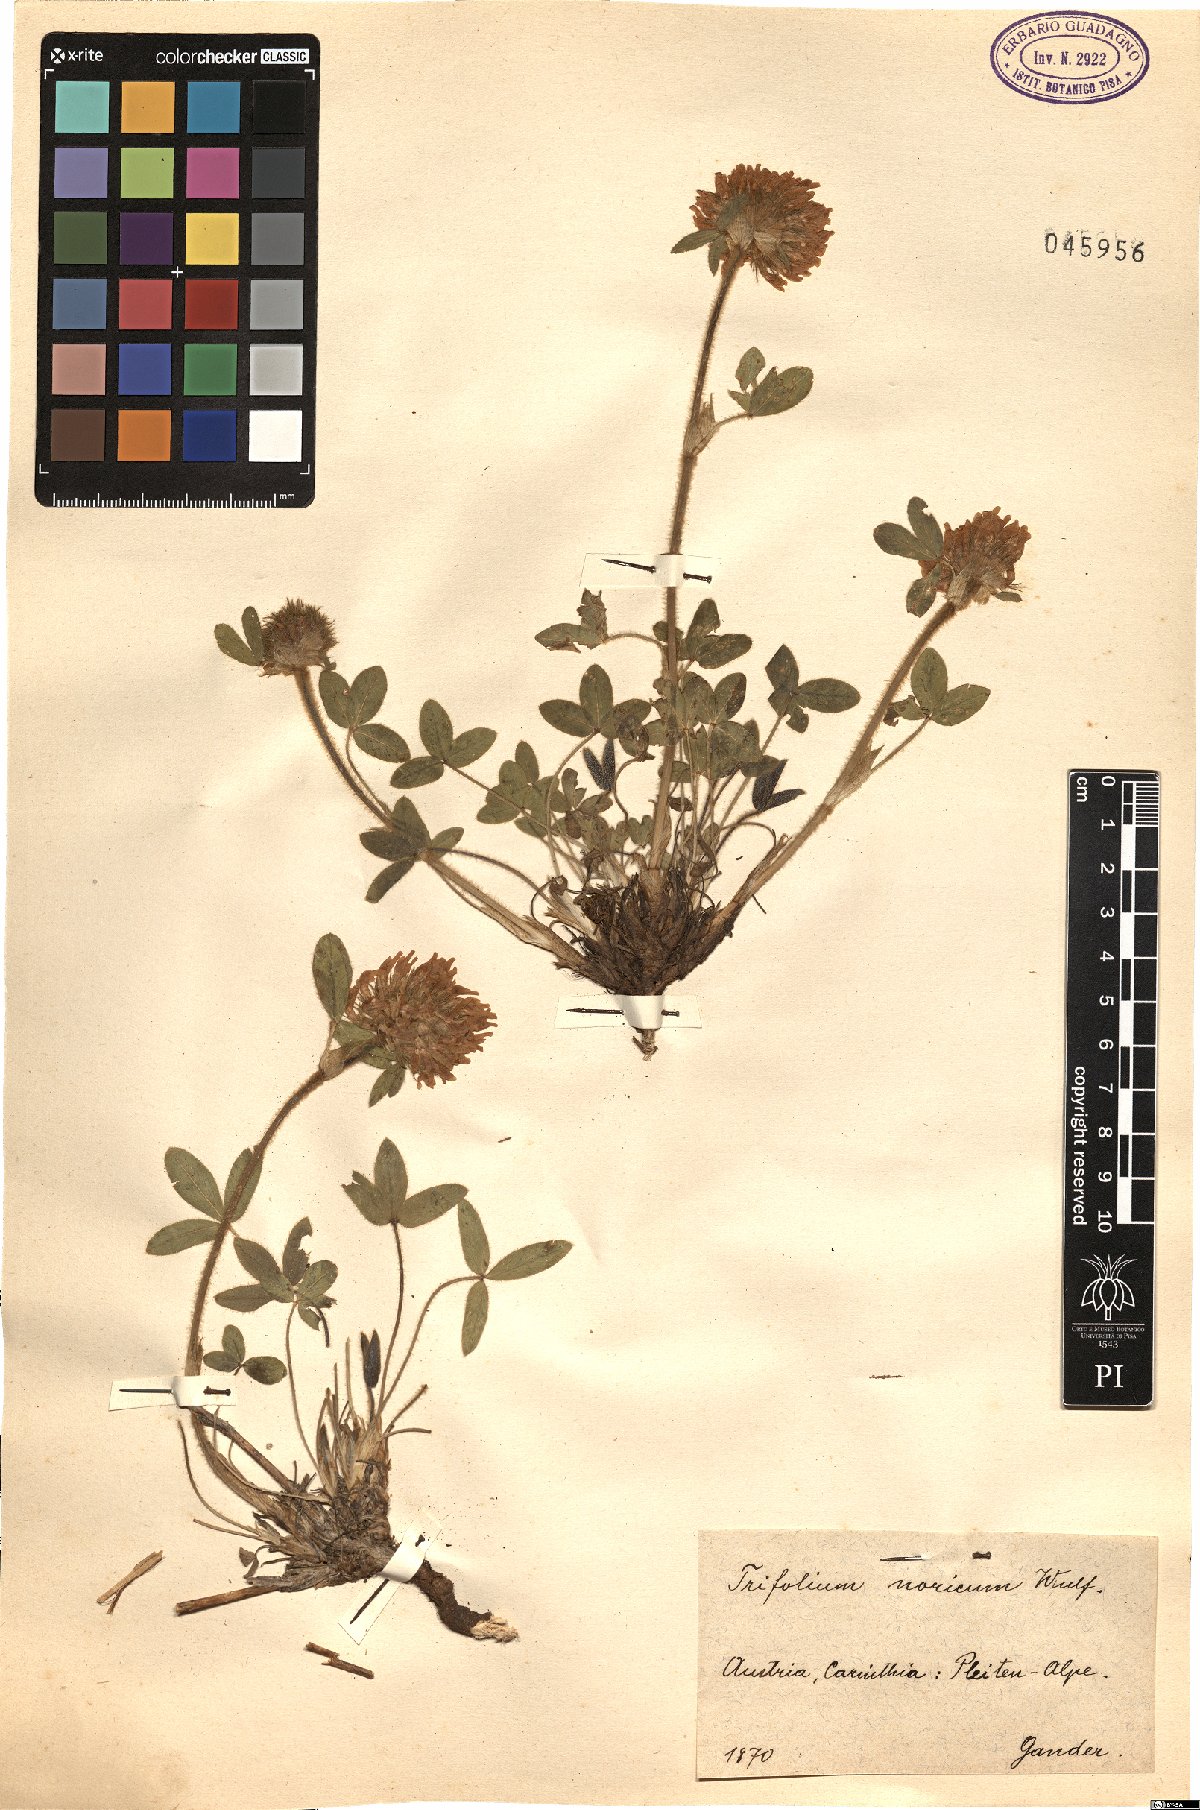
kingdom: Plantae
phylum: Tracheophyta
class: Magnoliopsida
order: Fabales
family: Fabaceae
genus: Trifolium
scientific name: Trifolium noricum
